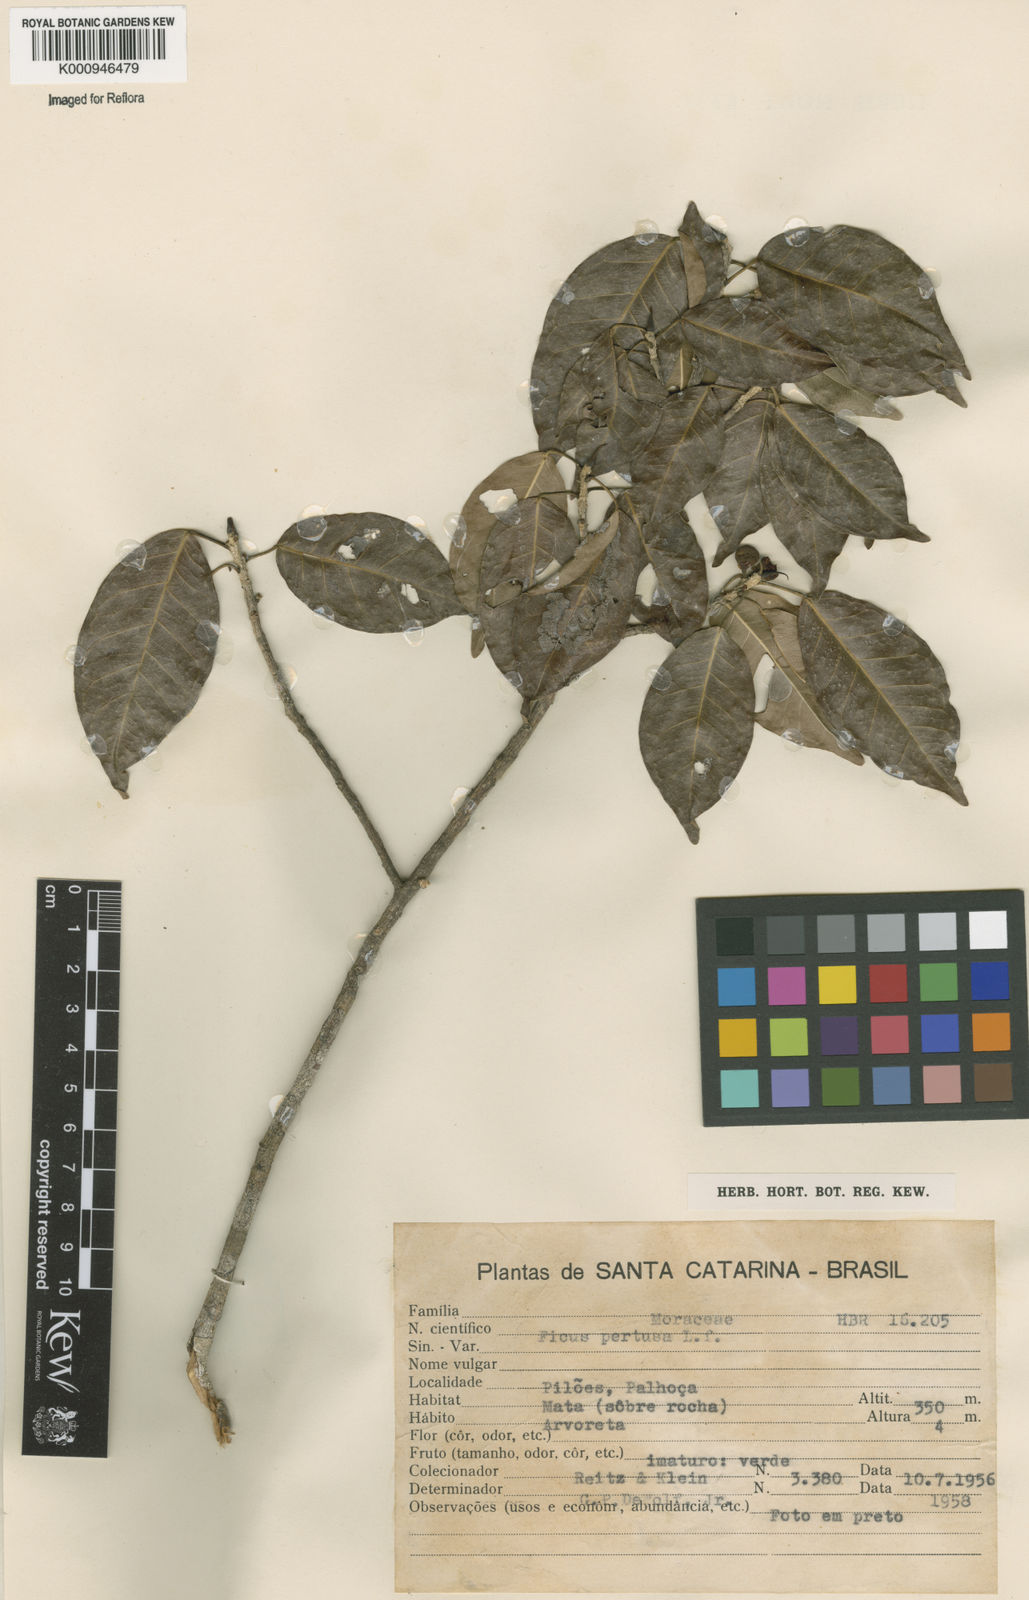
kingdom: Plantae
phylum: Tracheophyta
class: Magnoliopsida
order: Rosales
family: Moraceae
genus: Ficus
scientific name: Ficus pertusa
